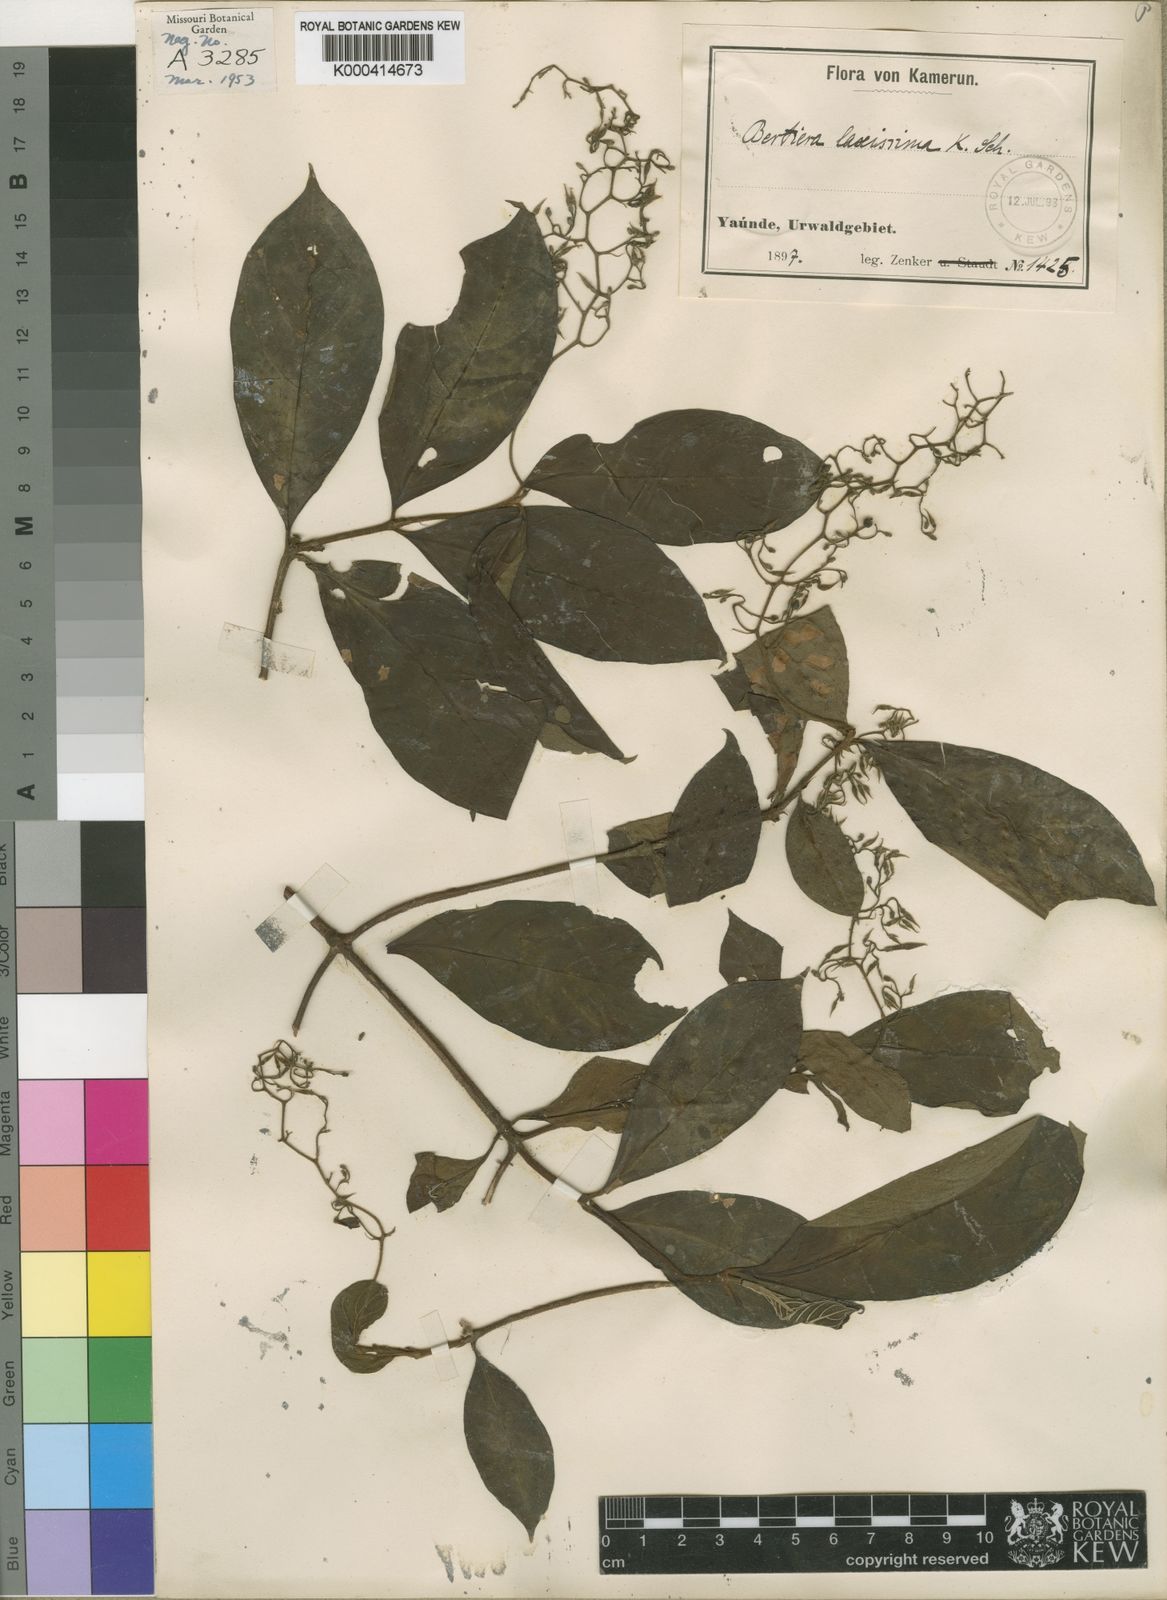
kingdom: Plantae
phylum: Tracheophyta
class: Magnoliopsida
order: Gentianales
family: Rubiaceae
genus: Bertiera
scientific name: Bertiera laxissima
